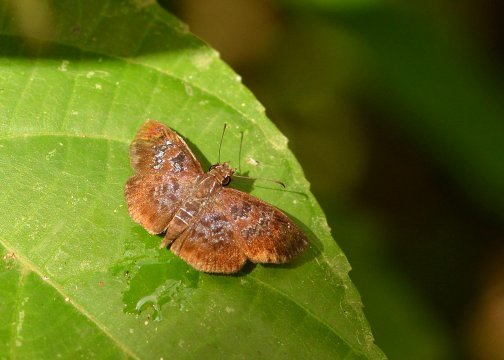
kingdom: Animalia
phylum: Arthropoda
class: Insecta
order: Lepidoptera
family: Hesperiidae
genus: Sophista
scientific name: Sophista bifasciata
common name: Metal-studded Skipper
